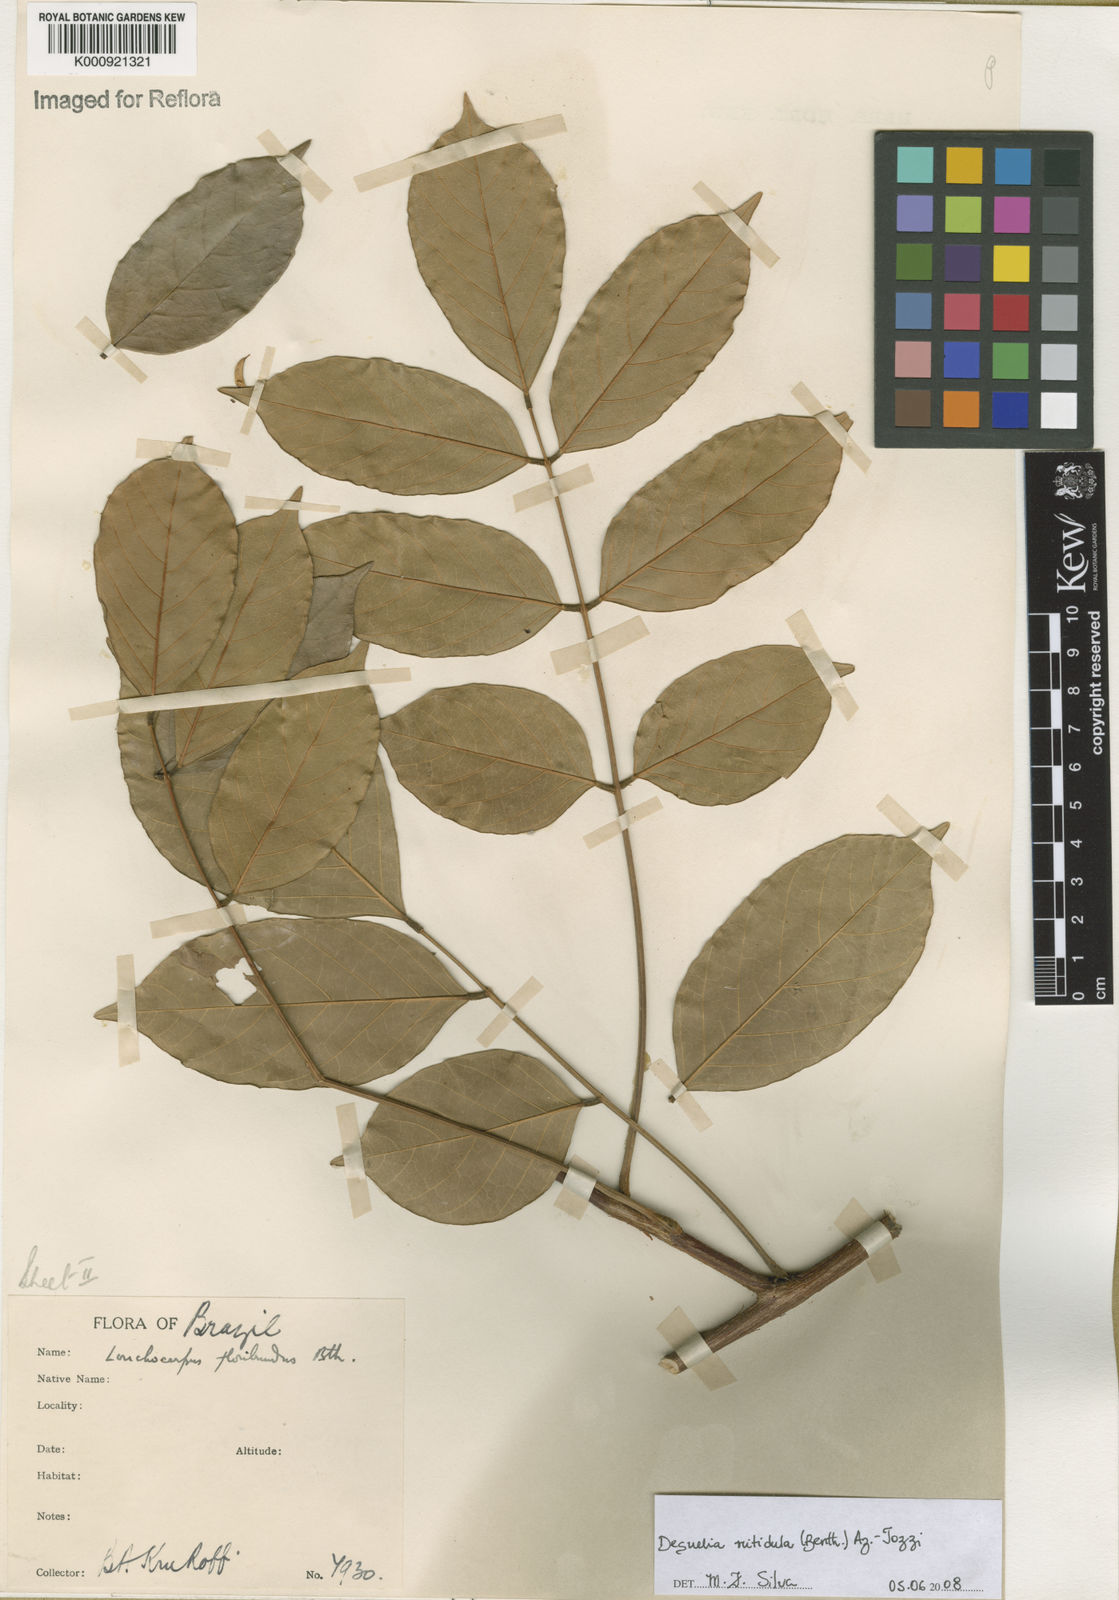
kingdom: Plantae
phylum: Tracheophyta
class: Magnoliopsida
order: Fabales
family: Fabaceae
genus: Deguelia
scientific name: Deguelia nitidula
